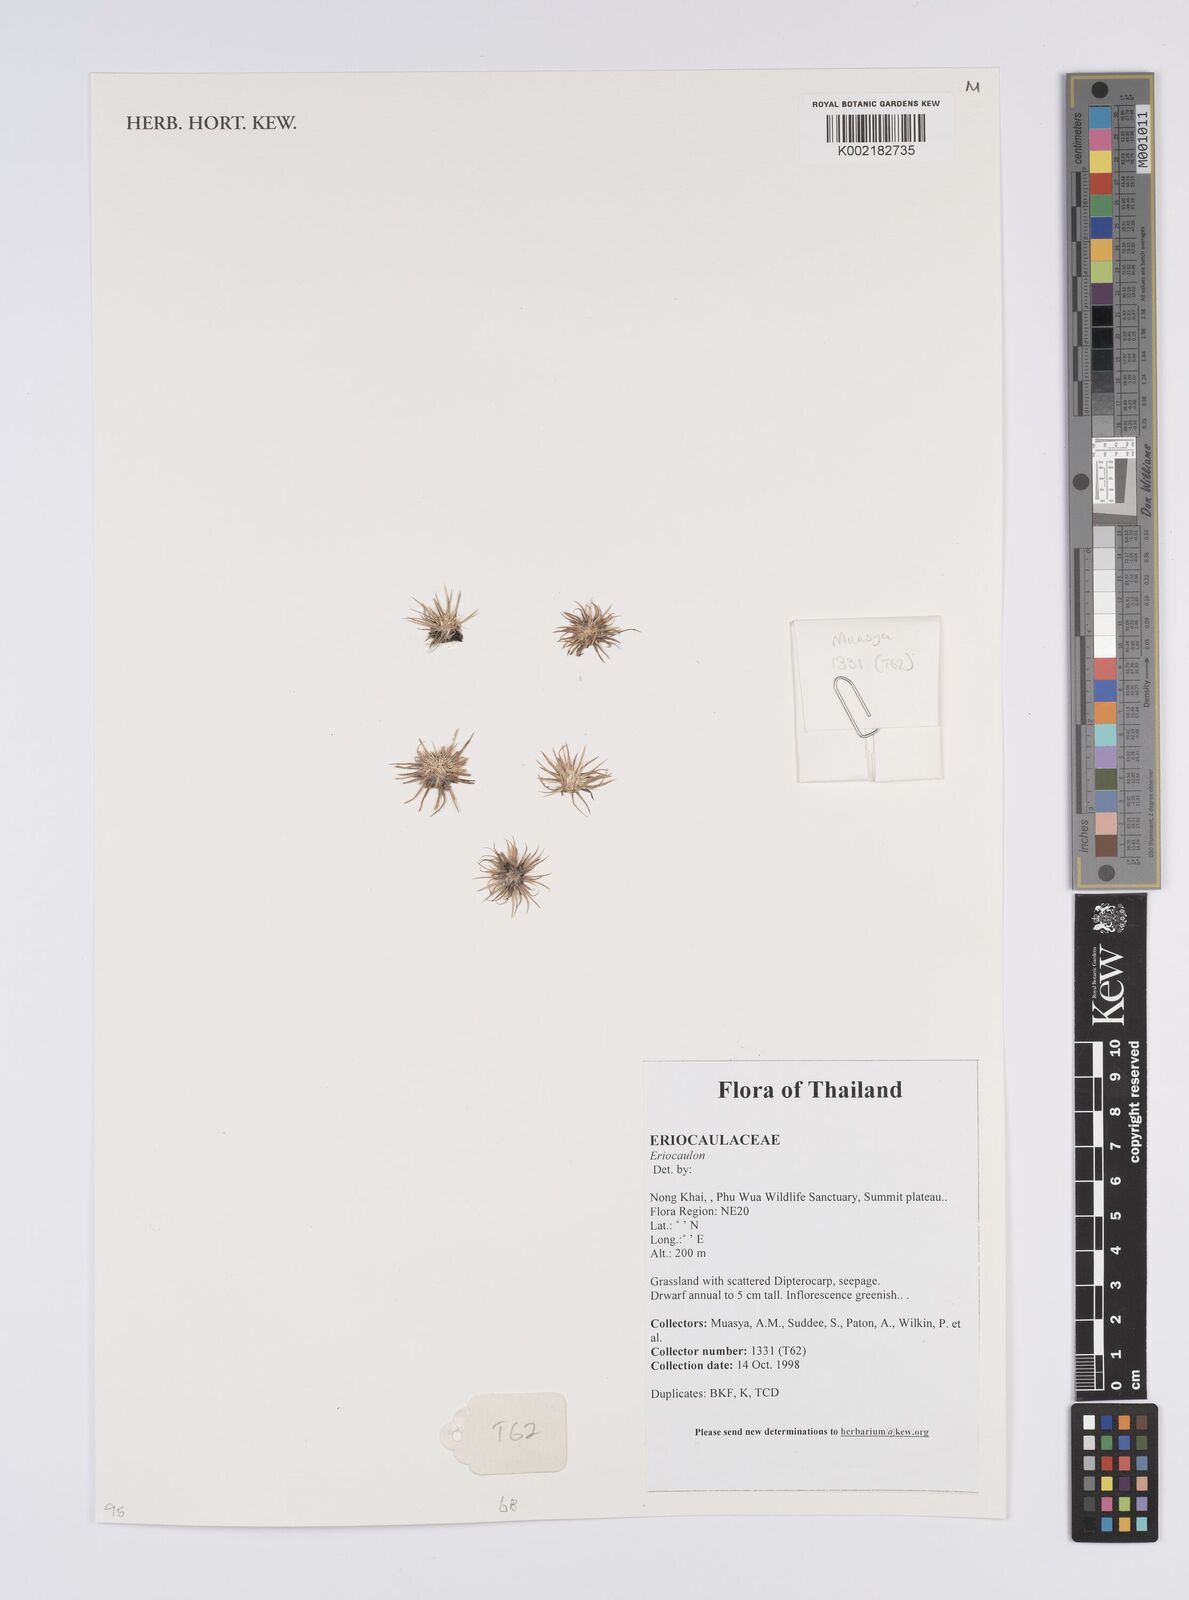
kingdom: Plantae
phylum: Tracheophyta
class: Liliopsida
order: Poales
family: Eriocaulaceae
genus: Eriocaulon
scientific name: Eriocaulon
